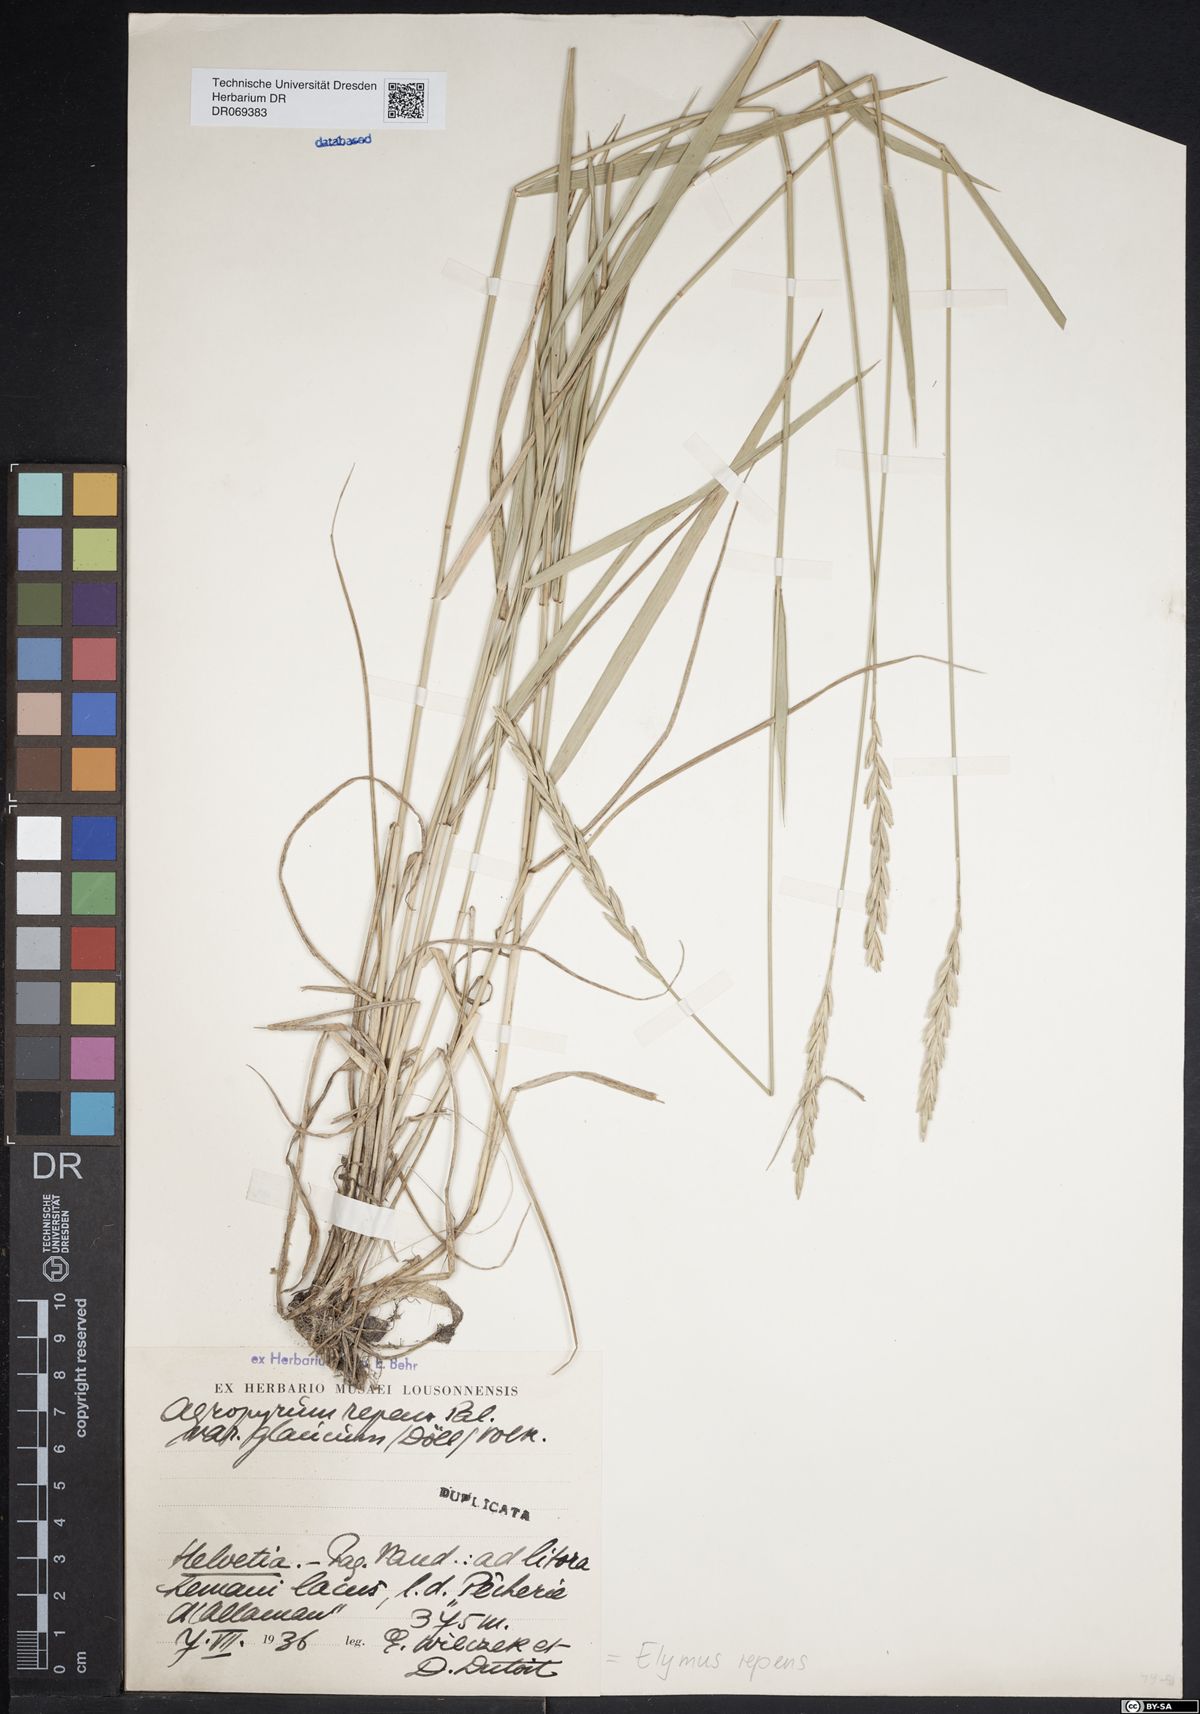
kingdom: Plantae
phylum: Tracheophyta
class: Liliopsida
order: Poales
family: Poaceae
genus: Elymus
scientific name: Elymus repens
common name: Quackgrass
